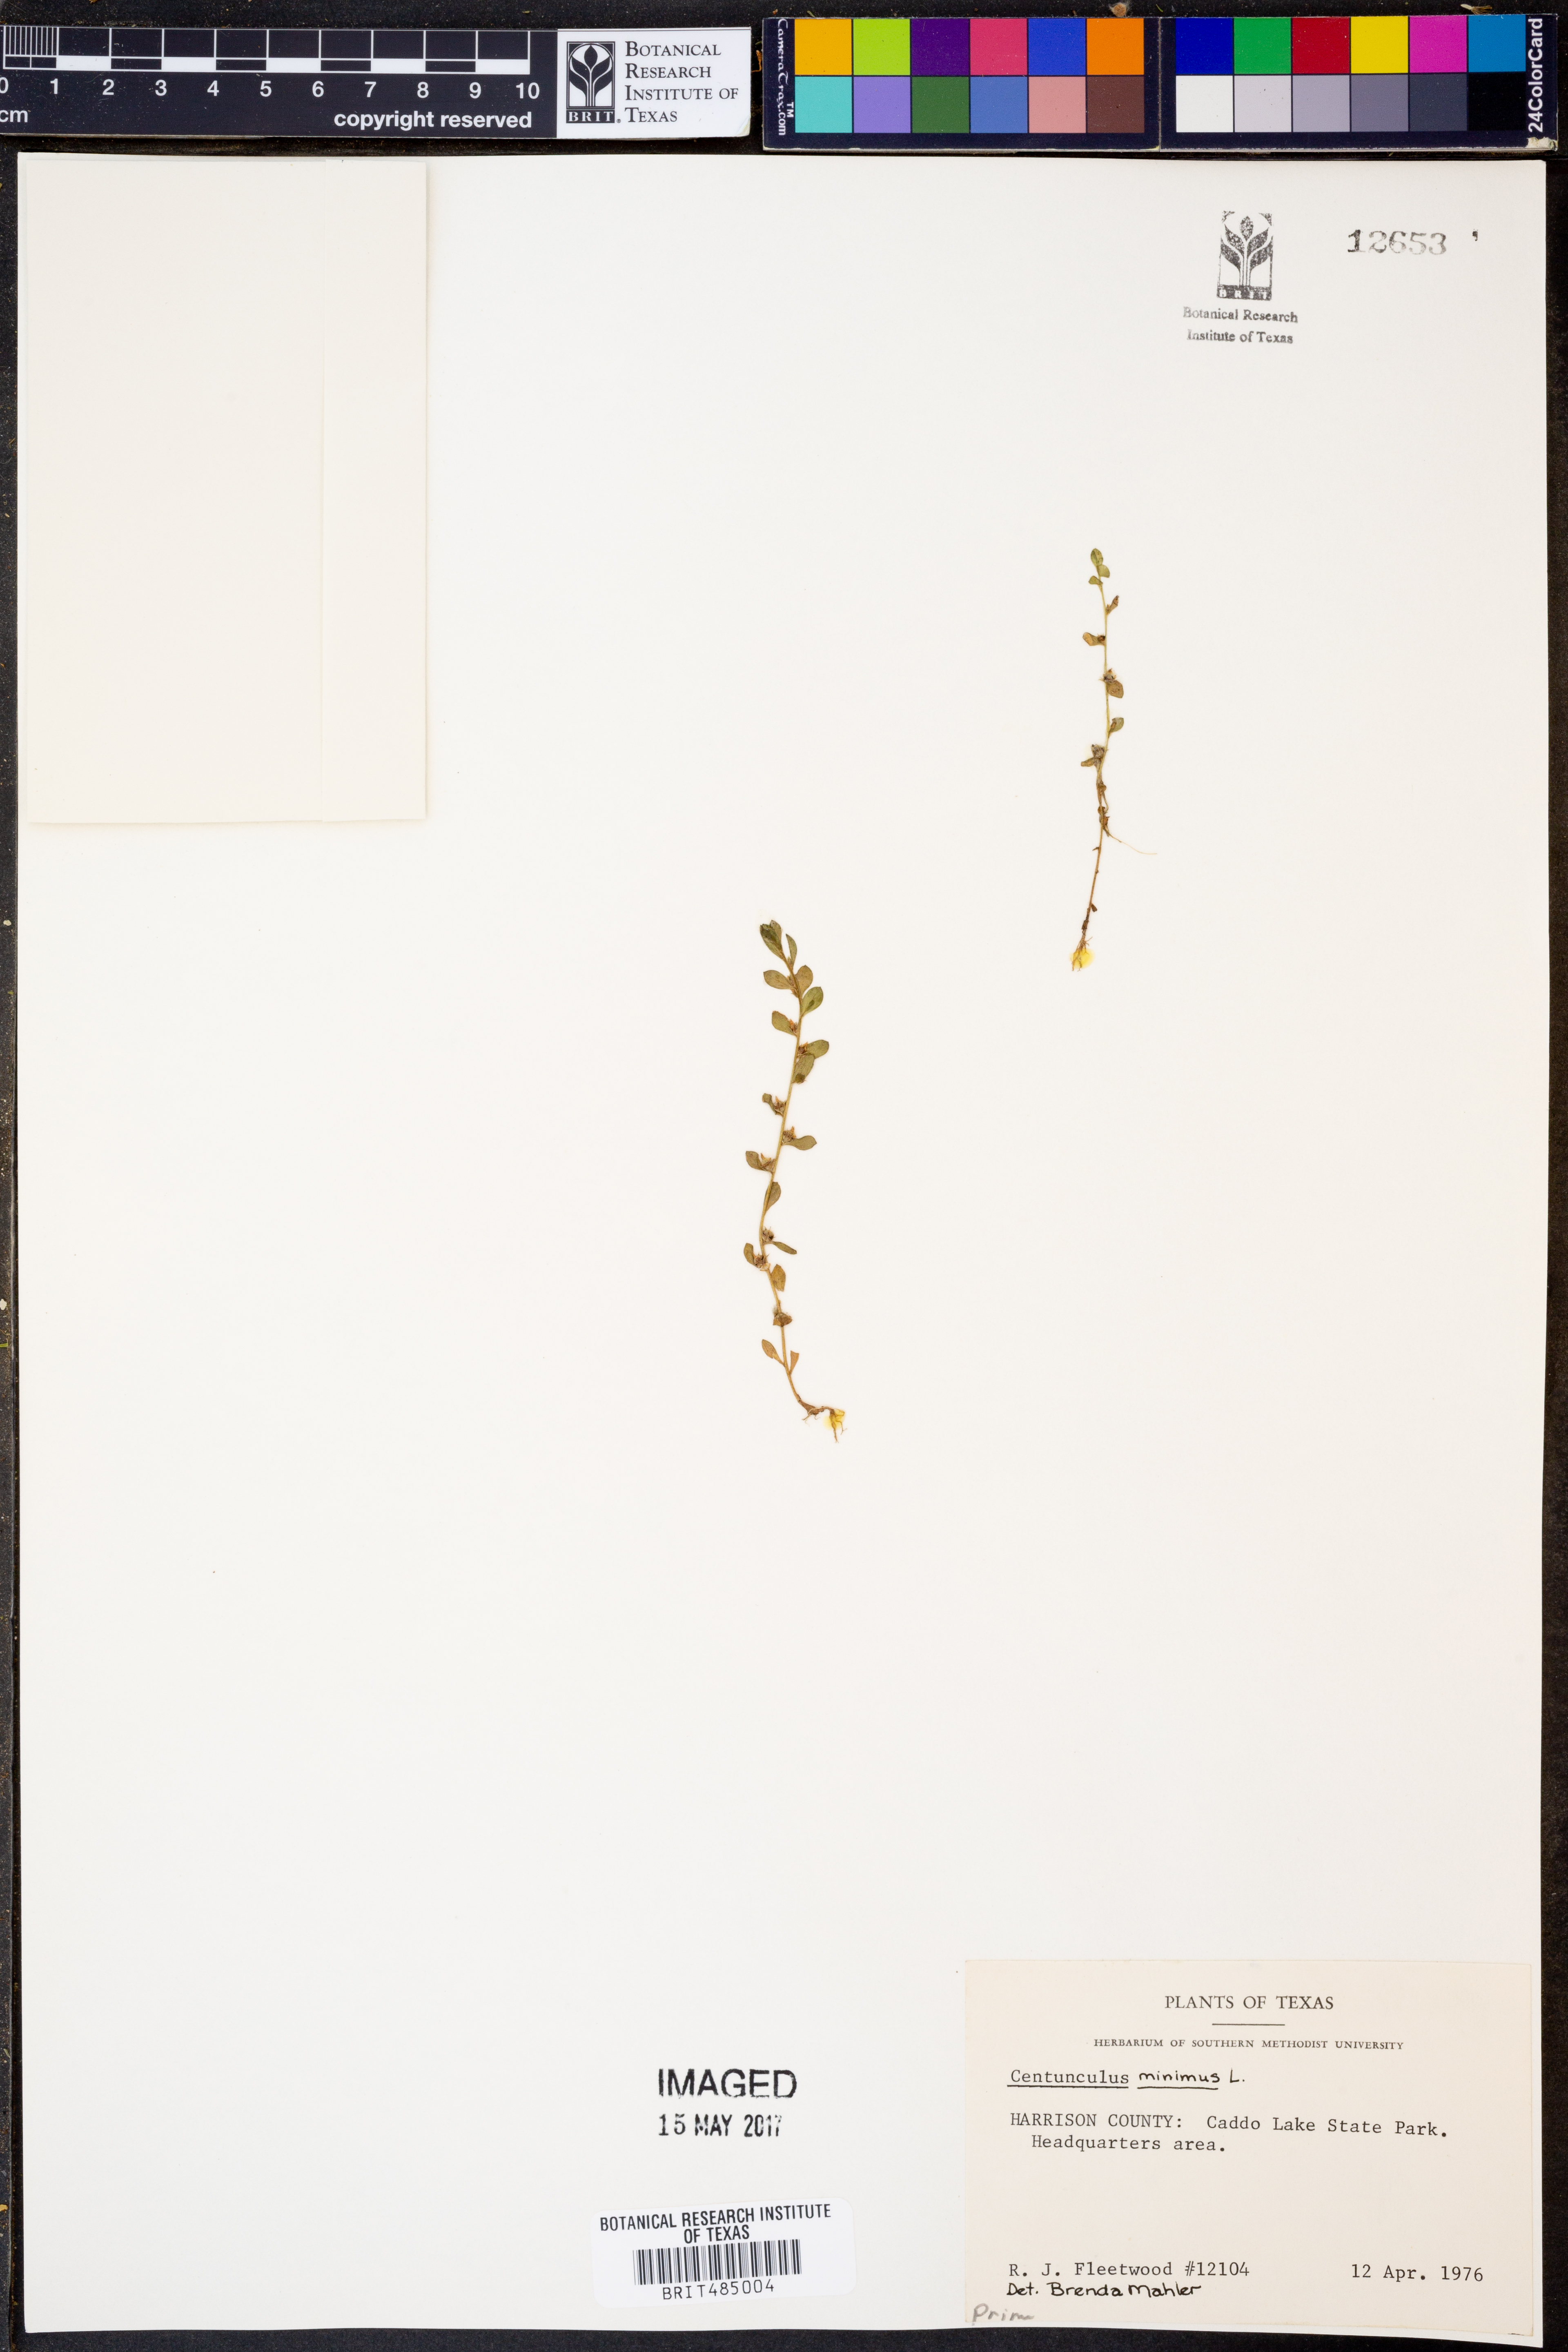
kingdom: Plantae
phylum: Tracheophyta
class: Magnoliopsida
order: Ericales
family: Primulaceae
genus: Lysimachia
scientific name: Lysimachia minima
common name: Chaffweed
